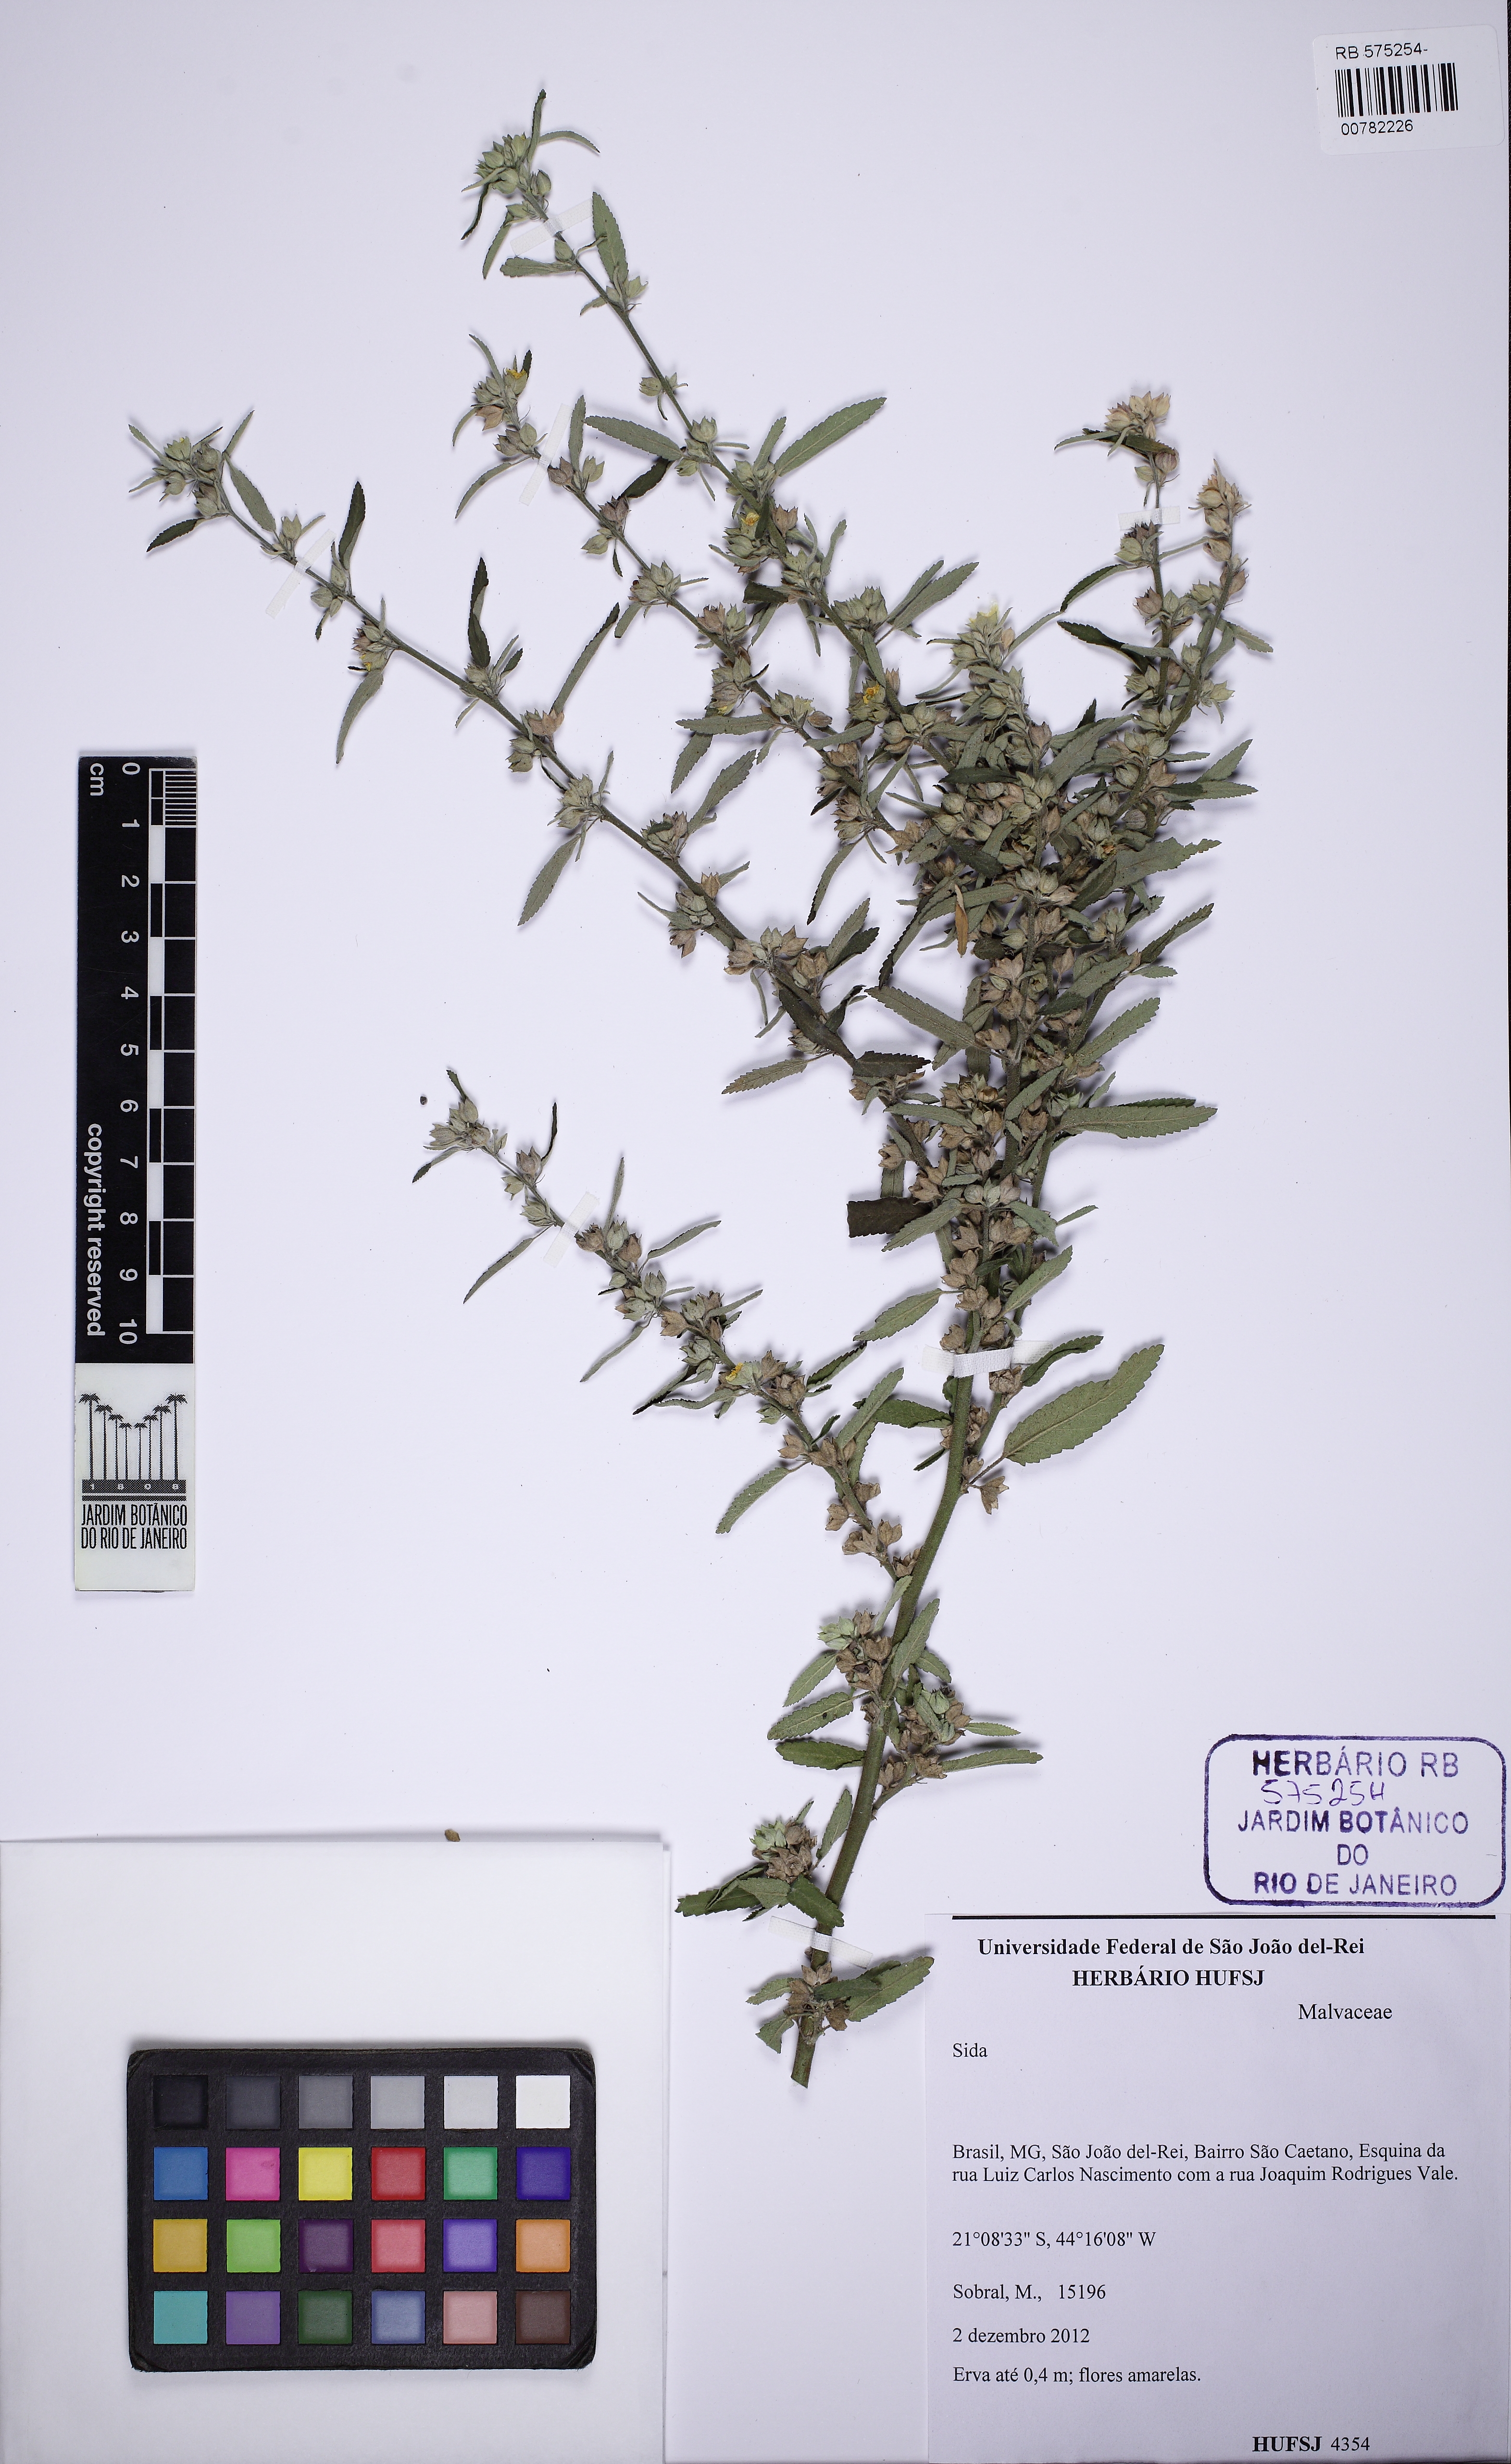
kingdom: Plantae
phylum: Tracheophyta
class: Magnoliopsida
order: Malvales
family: Malvaceae
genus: Sida
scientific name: Sida
